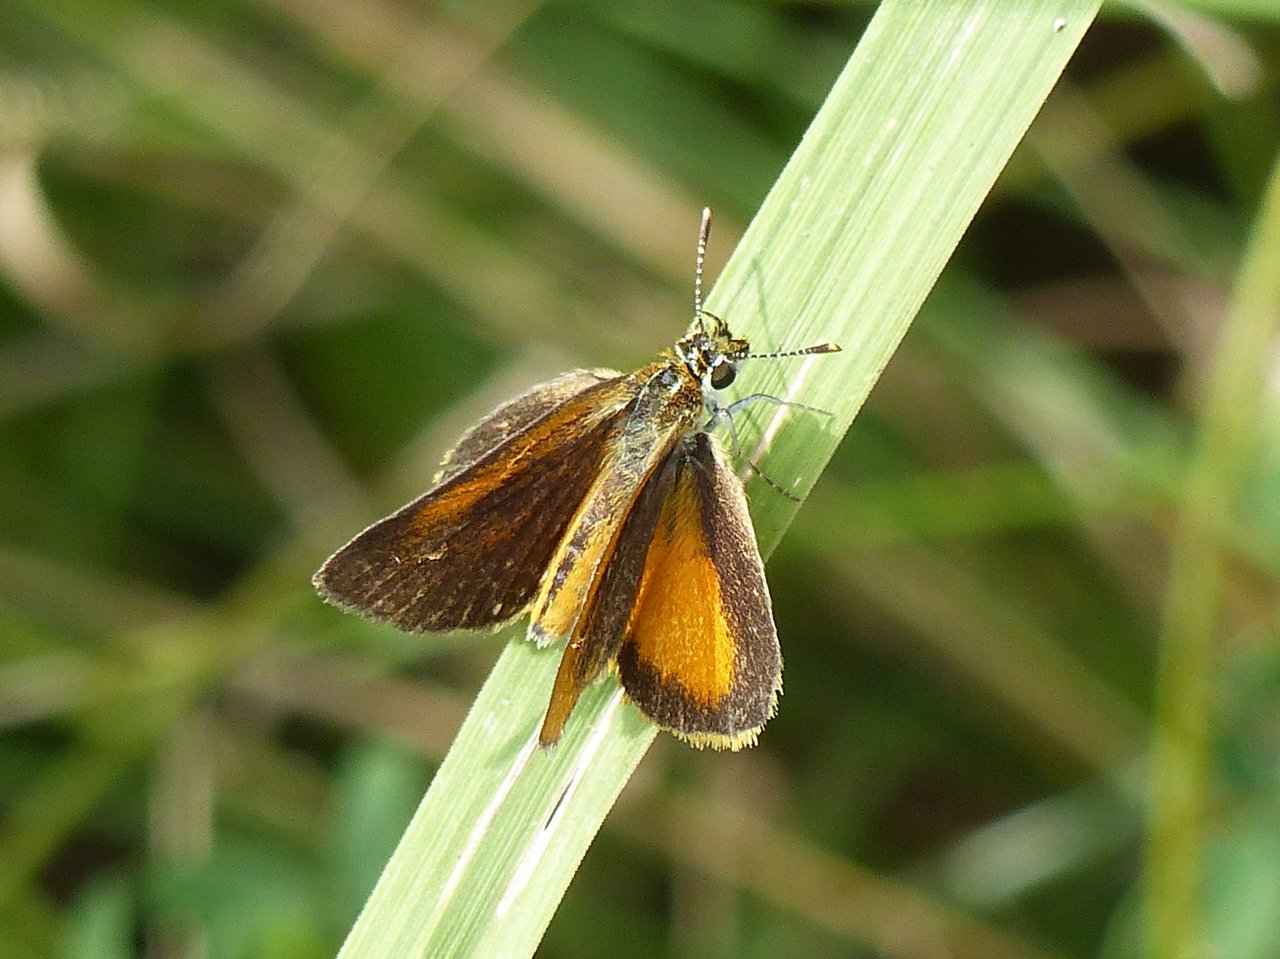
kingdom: Animalia
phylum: Arthropoda
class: Insecta
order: Lepidoptera
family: Hesperiidae
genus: Ancyloxypha
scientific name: Ancyloxypha numitor
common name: Least Skipper
